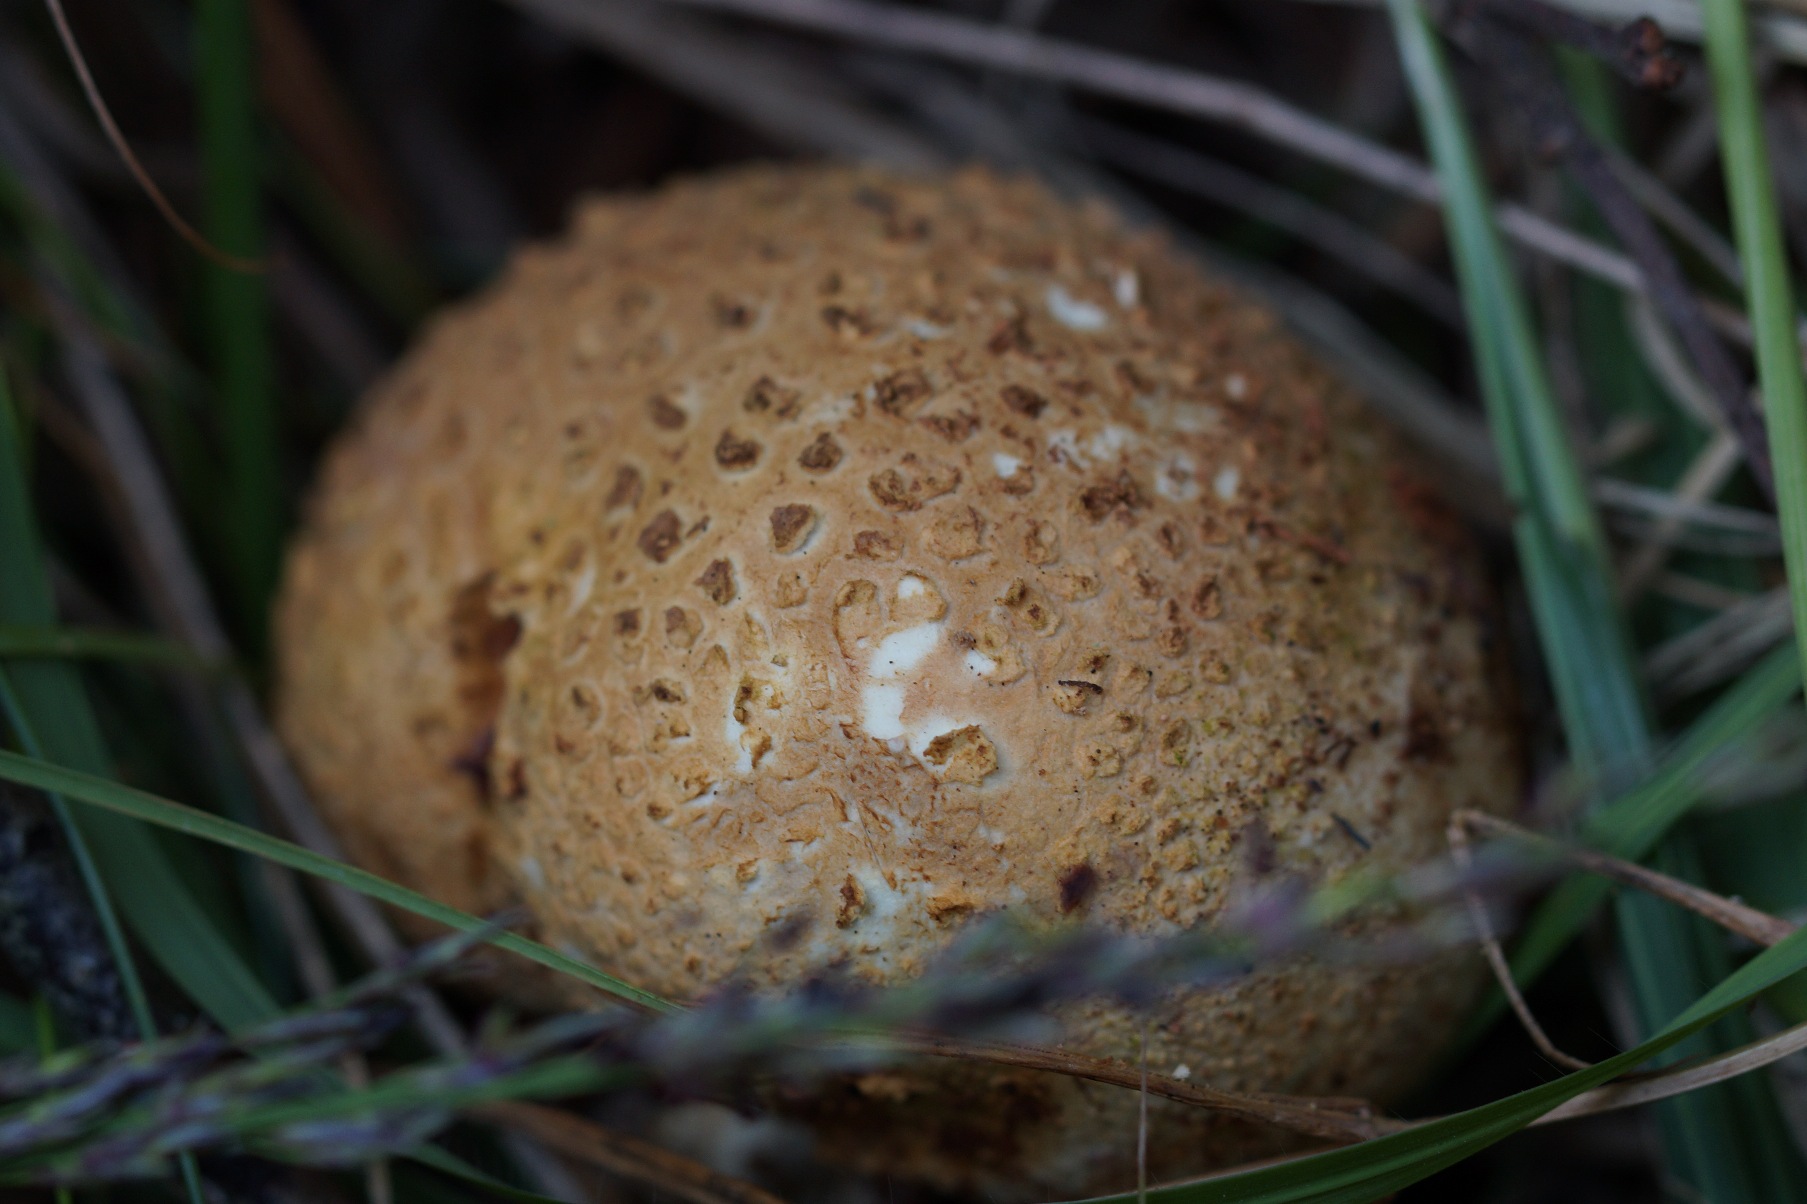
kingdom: Fungi
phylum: Basidiomycota
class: Agaricomycetes
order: Boletales
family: Sclerodermataceae
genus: Scleroderma
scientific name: Scleroderma citrinum
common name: Almindelig bruskbold
